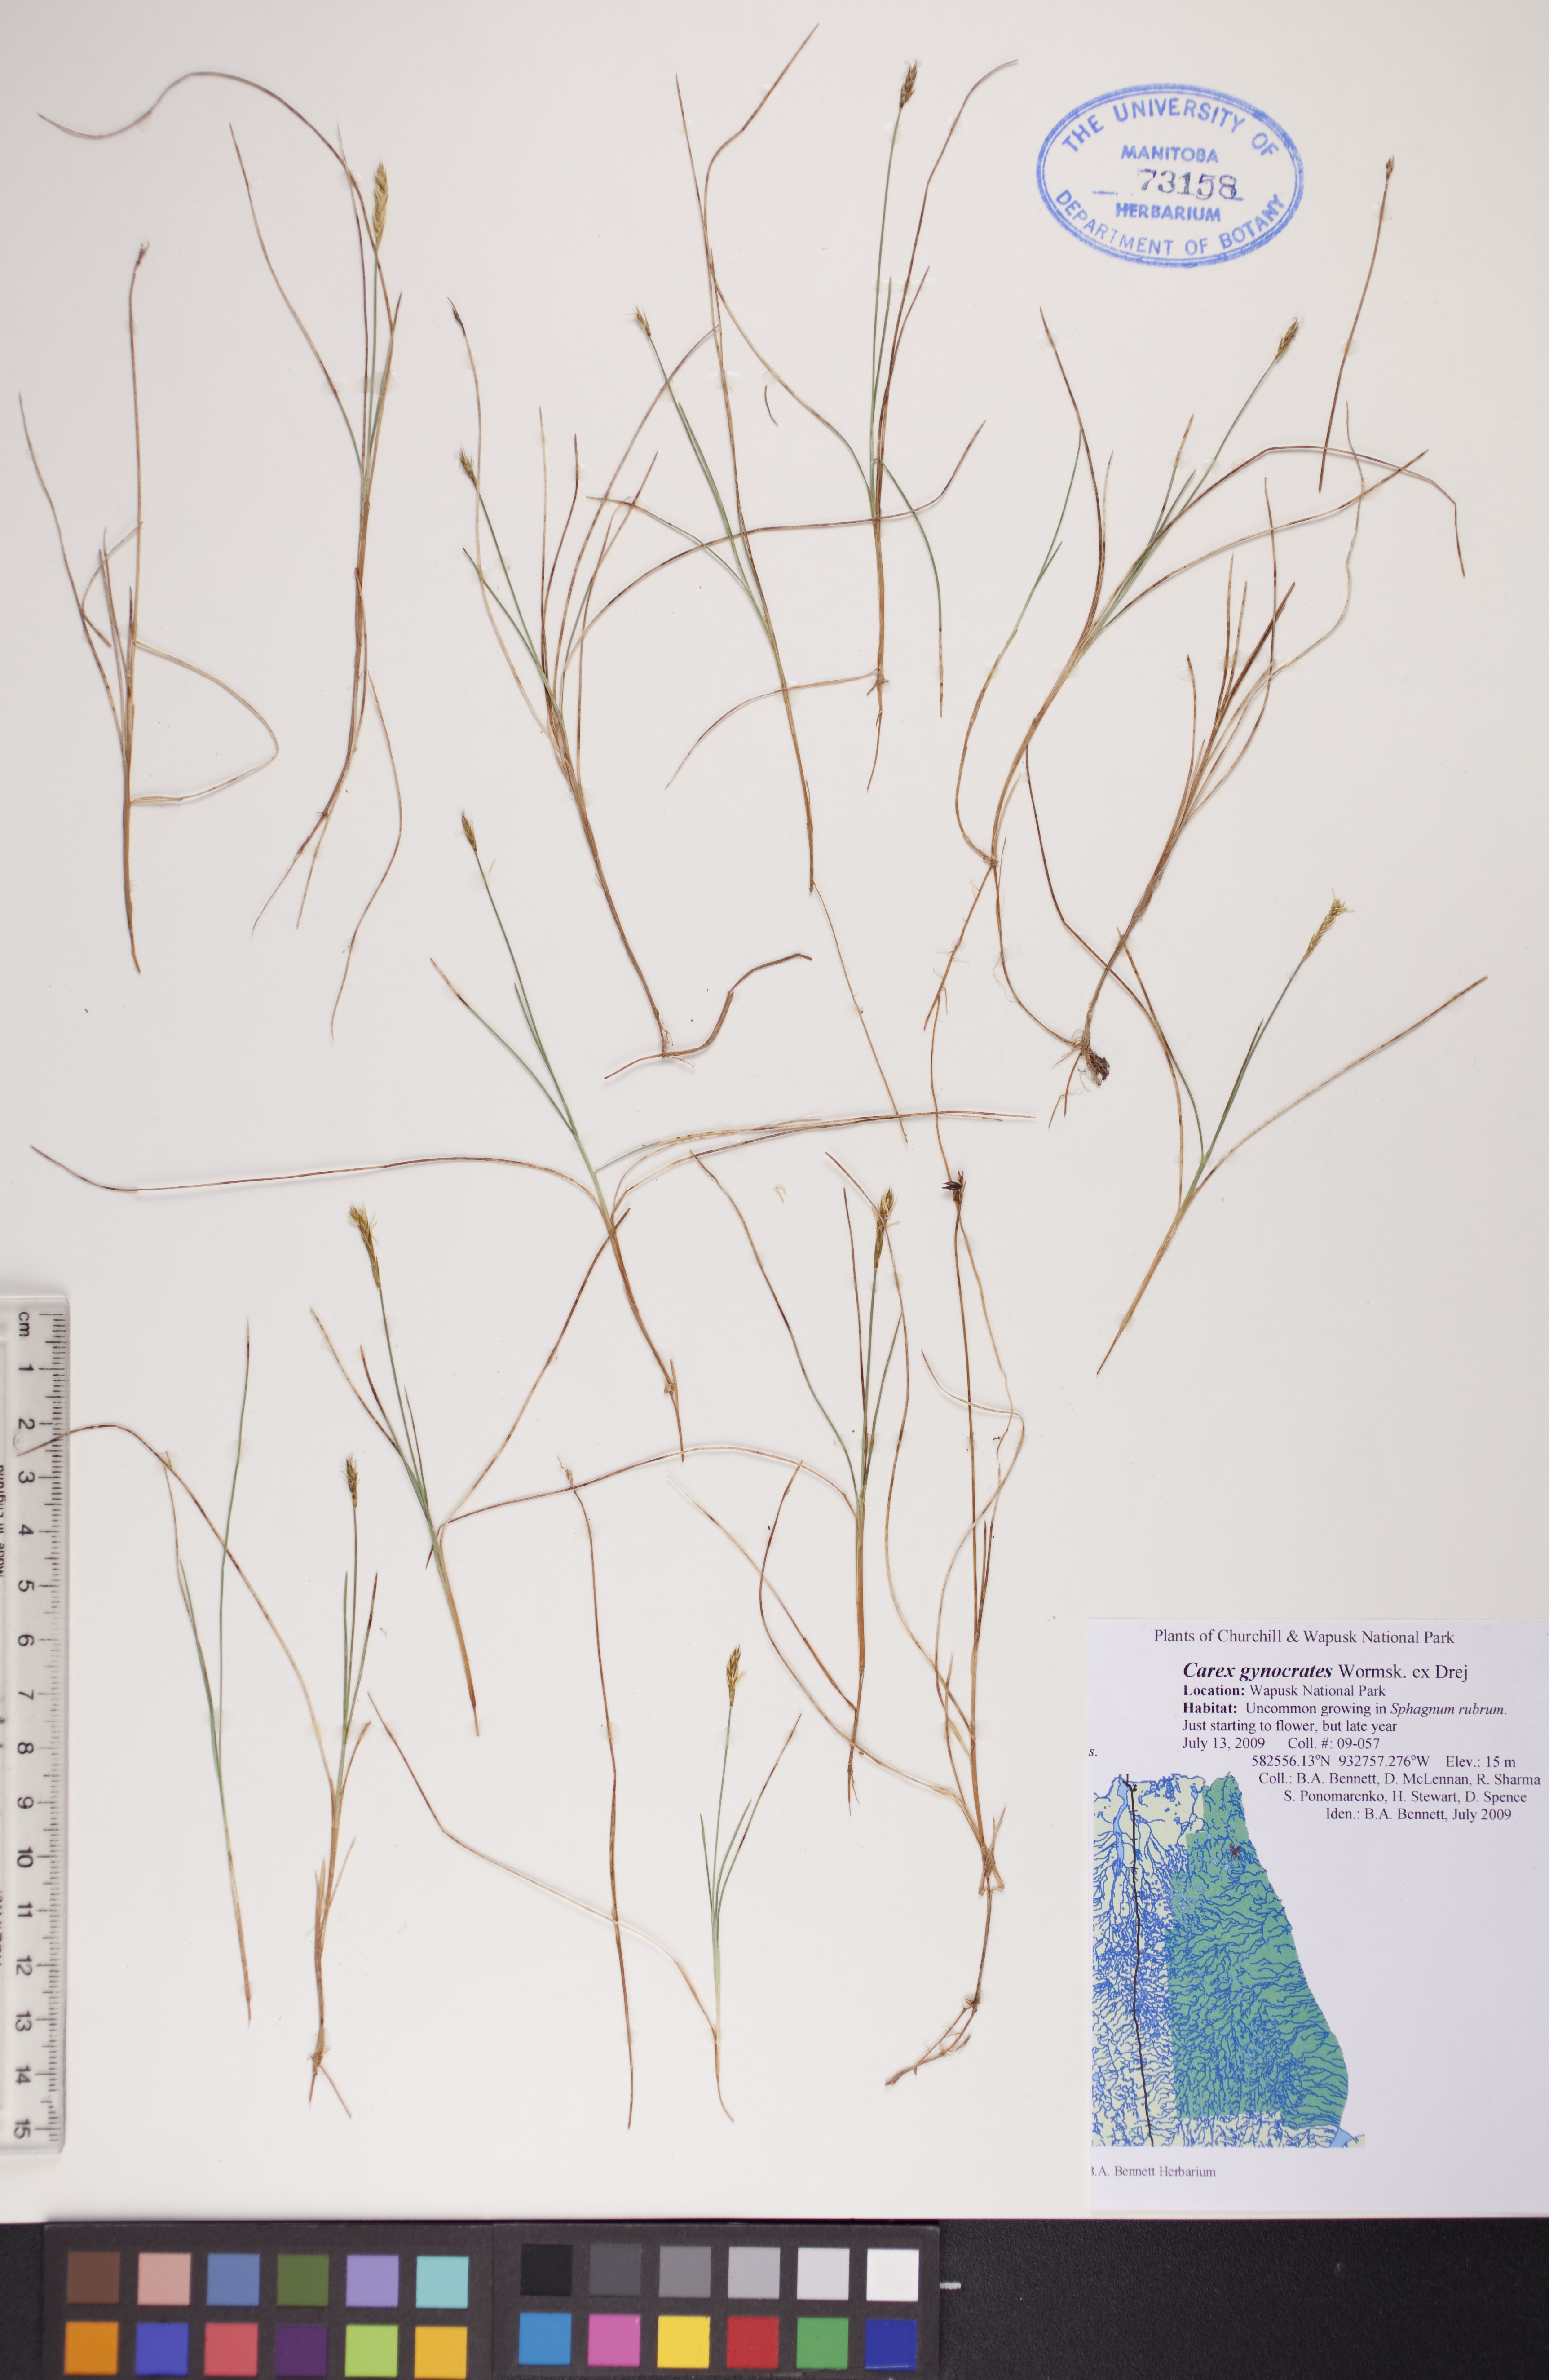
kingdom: Plantae
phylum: Tracheophyta
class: Liliopsida
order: Poales
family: Cyperaceae
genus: Carex
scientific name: Carex nardina
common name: Nard sedge
